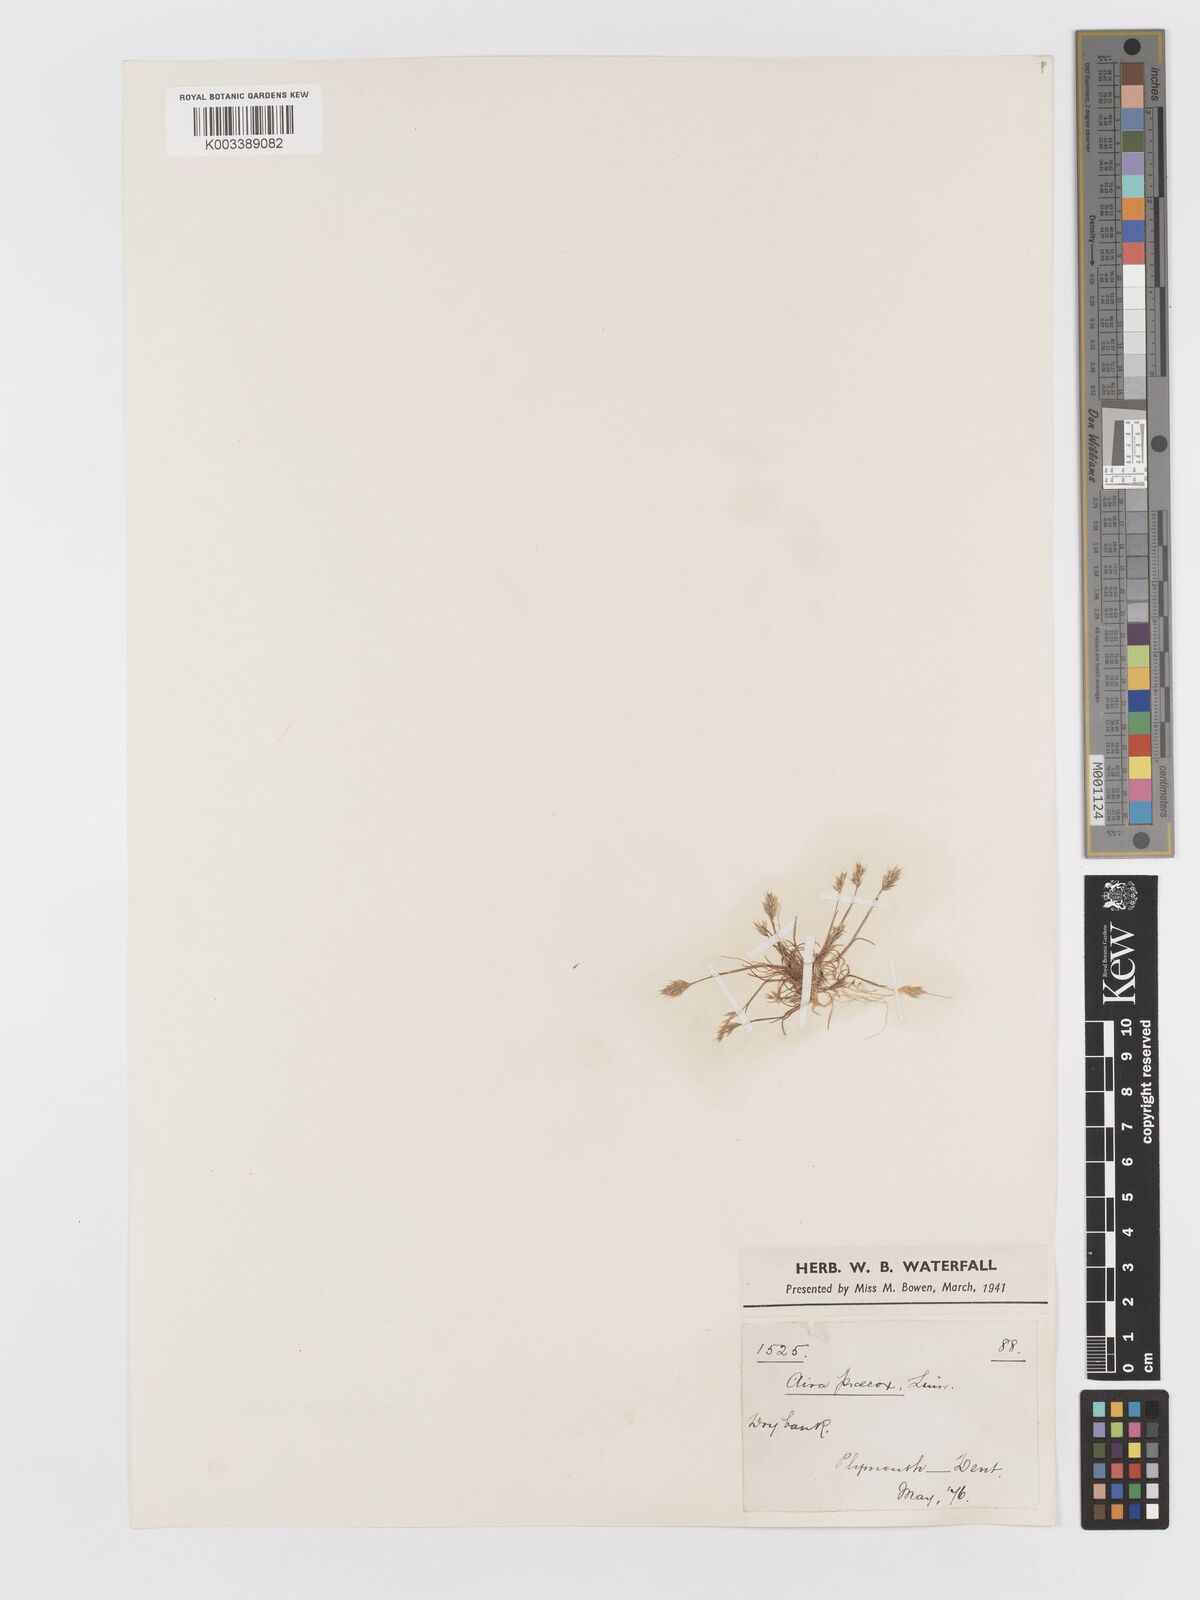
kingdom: Plantae
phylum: Tracheophyta
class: Liliopsida
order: Poales
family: Poaceae
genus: Aira
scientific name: Aira praecox
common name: Early hair-grass
